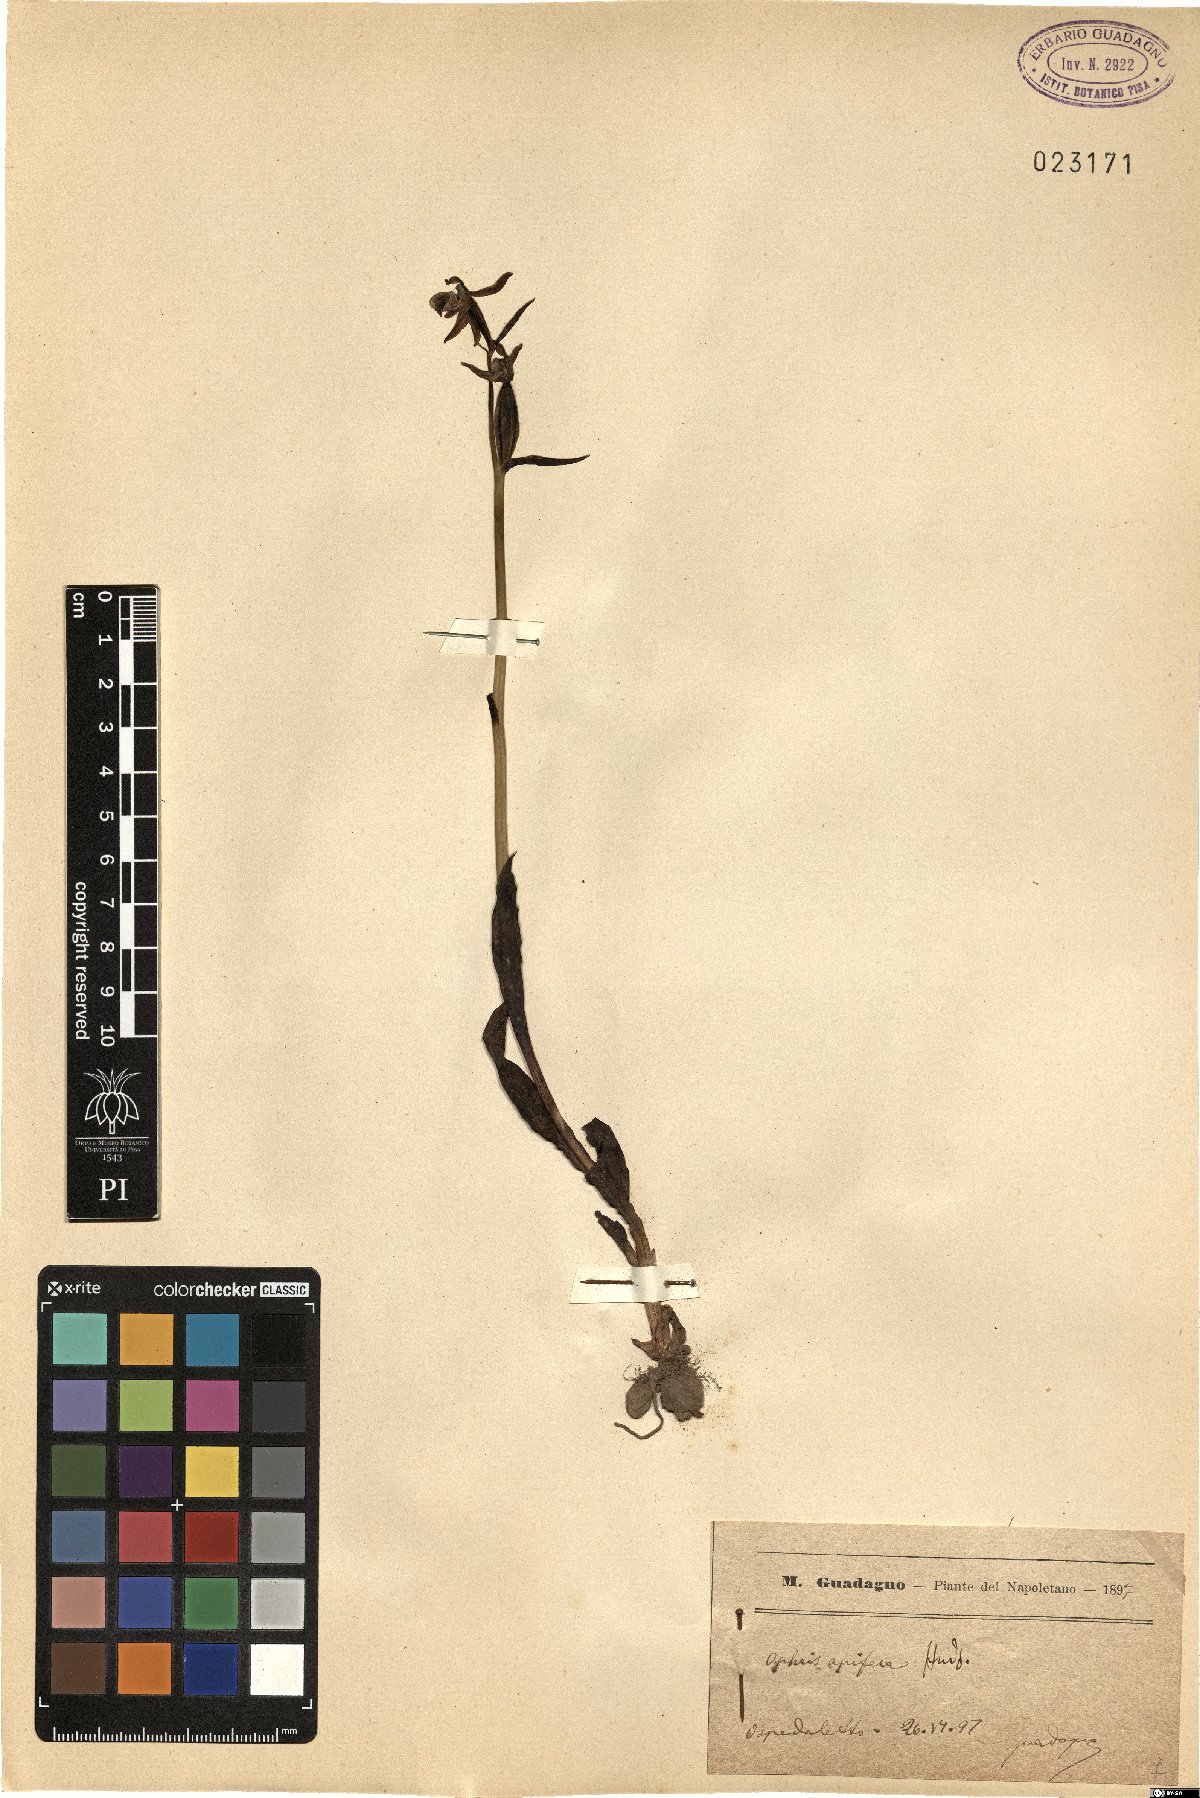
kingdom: Plantae
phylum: Tracheophyta
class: Liliopsida
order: Asparagales
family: Orchidaceae
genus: Ophrys
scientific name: Ophrys apifera
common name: Bee orchid
